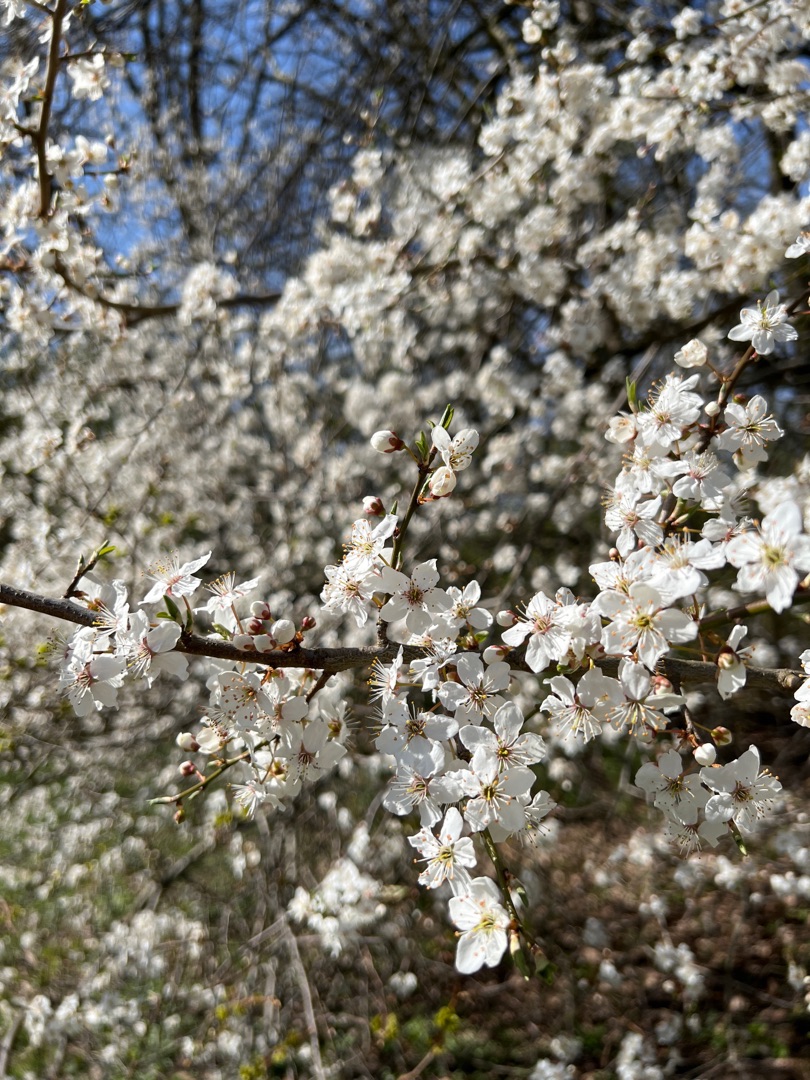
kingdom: Plantae
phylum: Tracheophyta
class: Magnoliopsida
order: Rosales
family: Rosaceae
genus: Prunus
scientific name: Prunus cerasifera
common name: Mirabel
